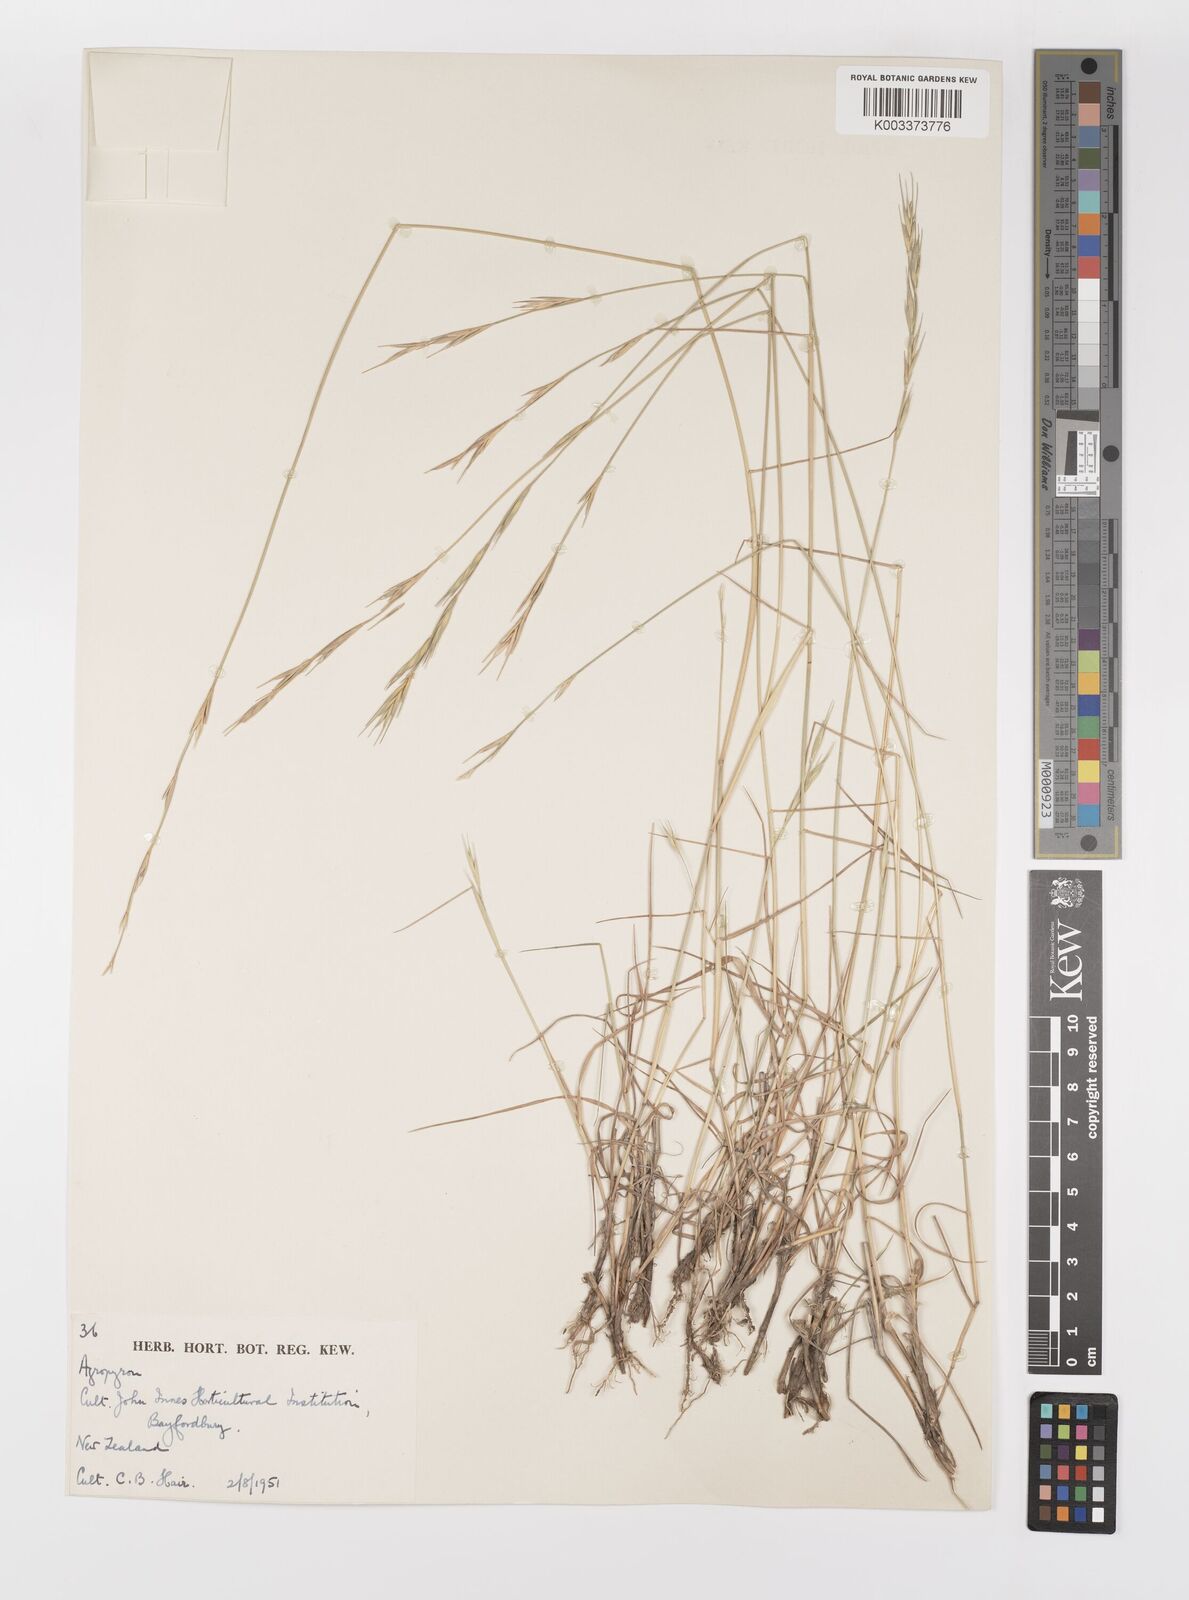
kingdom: Plantae
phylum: Tracheophyta
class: Liliopsida
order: Poales
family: Poaceae
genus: Elymus
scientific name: Elymus
